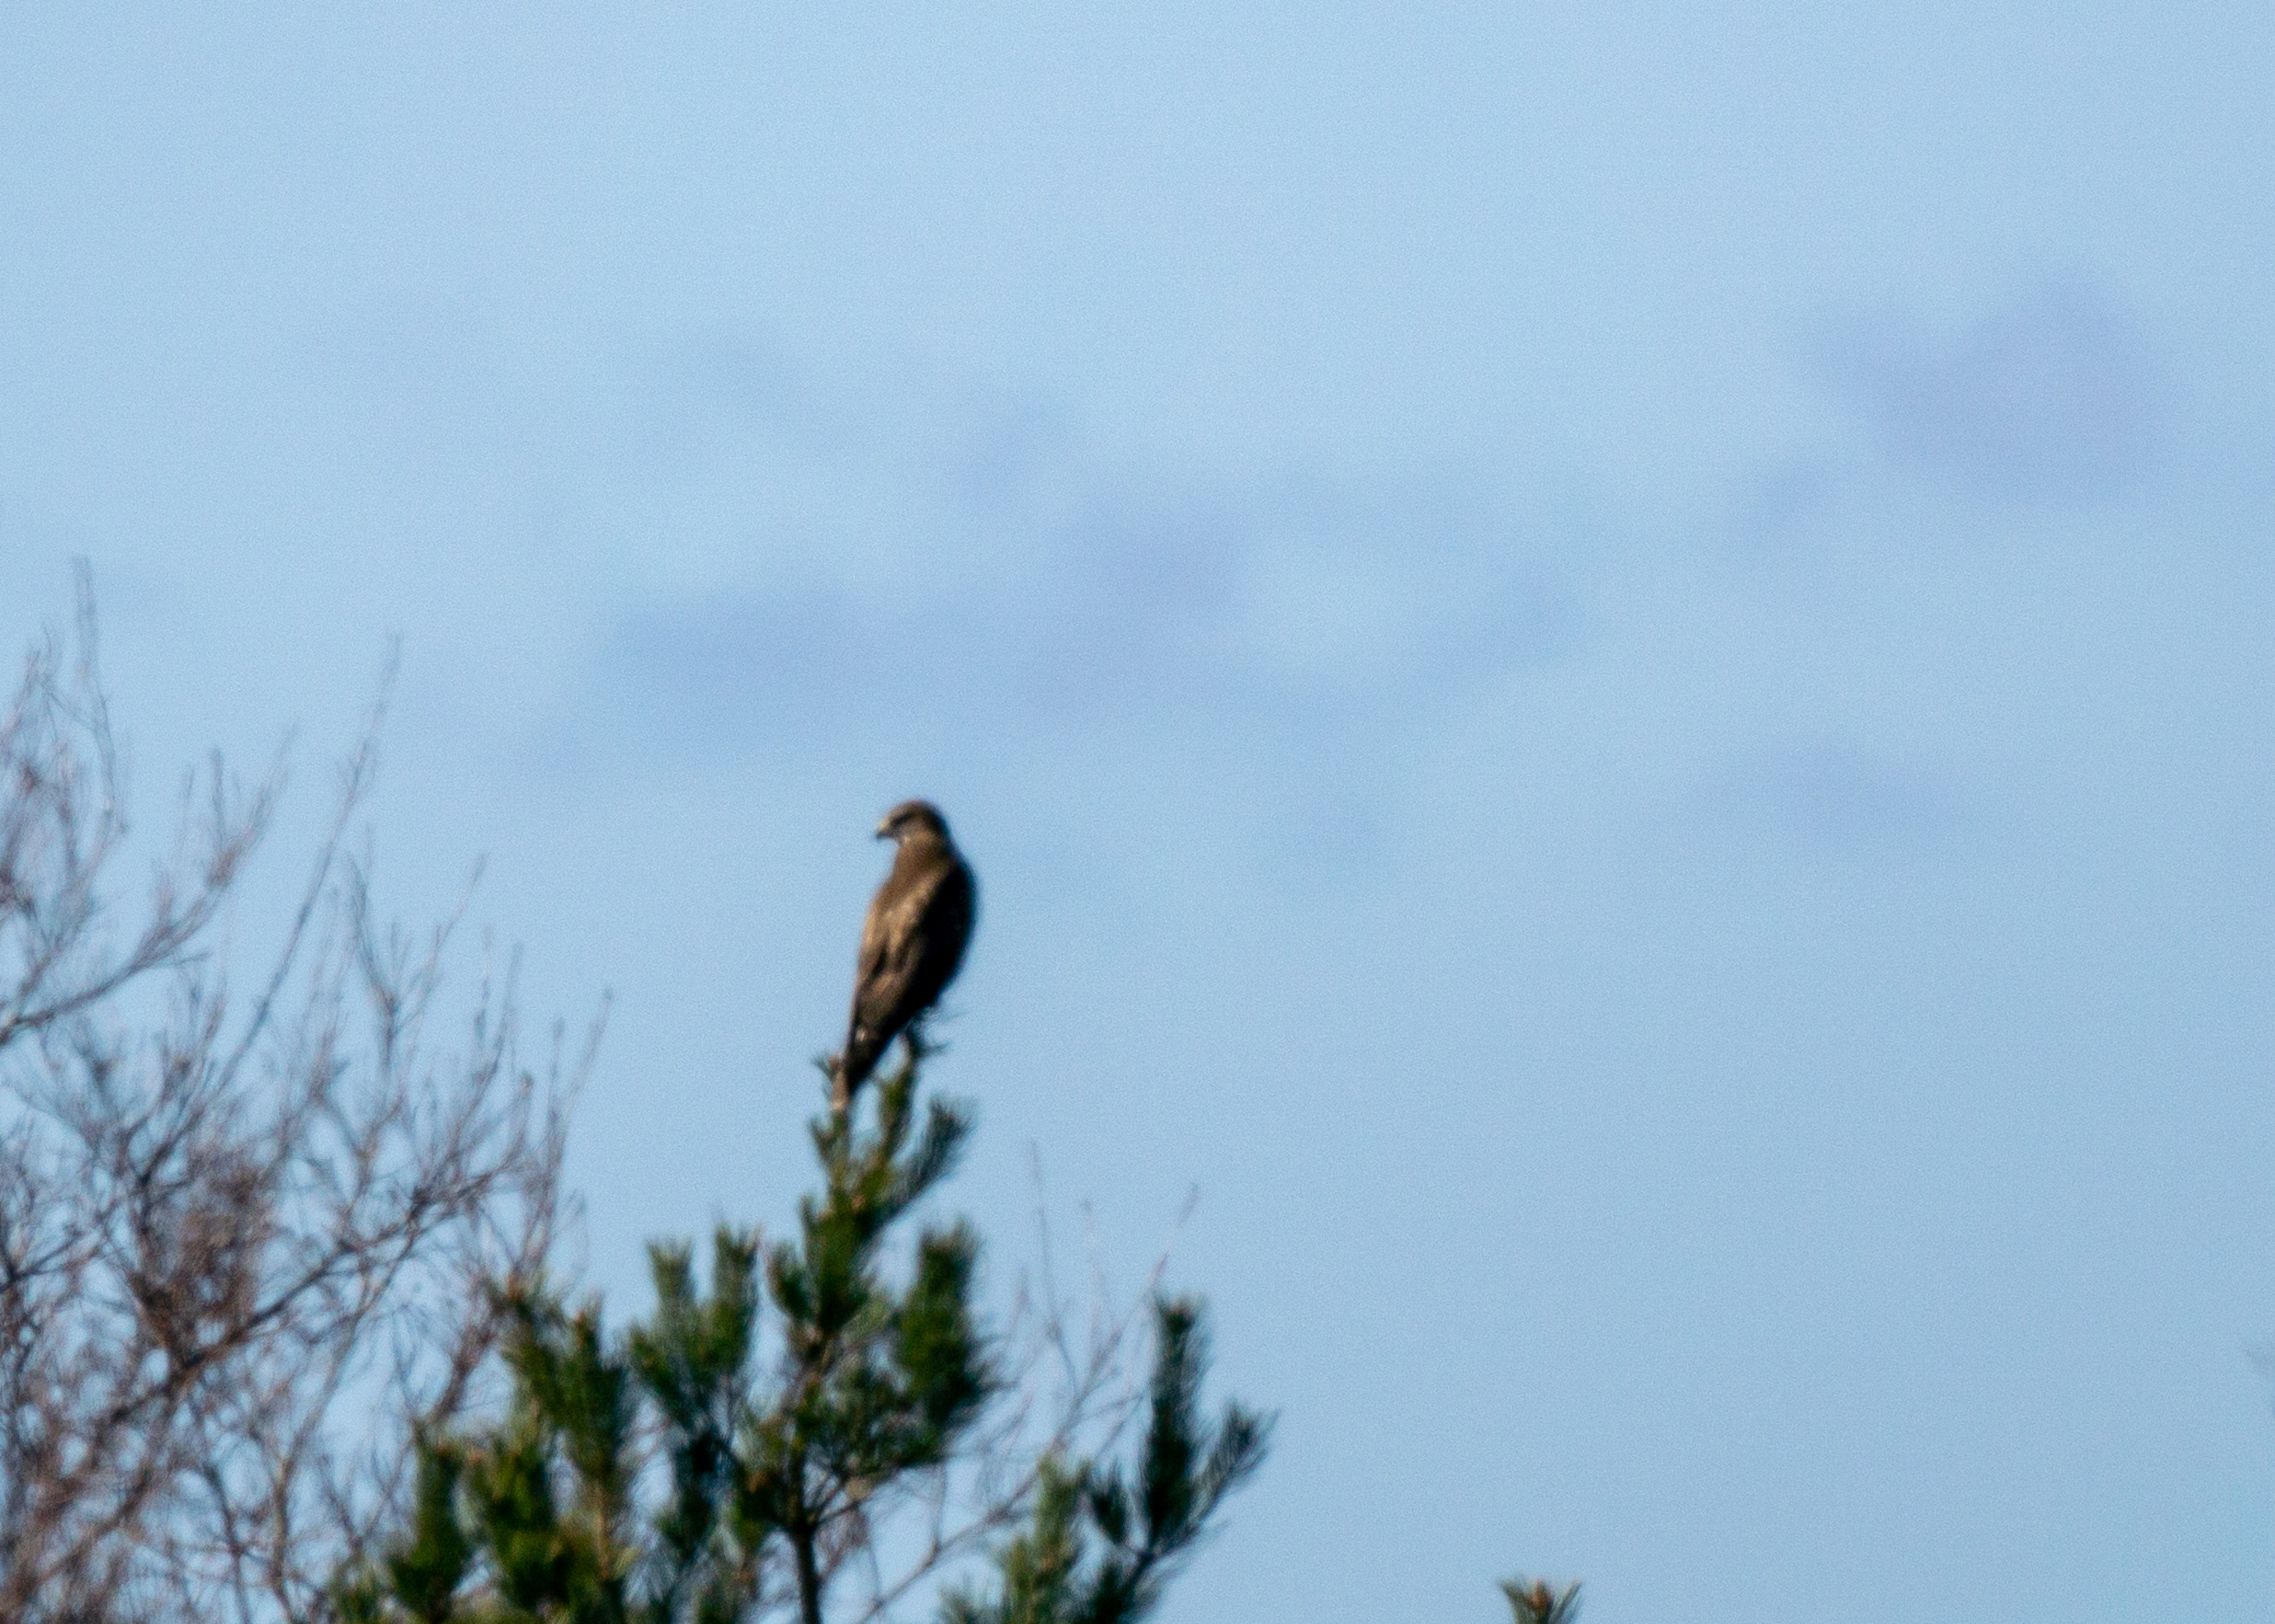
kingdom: Animalia
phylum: Chordata
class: Aves
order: Accipitriformes
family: Accipitridae
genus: Buteo
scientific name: Buteo buteo
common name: Musvåge
